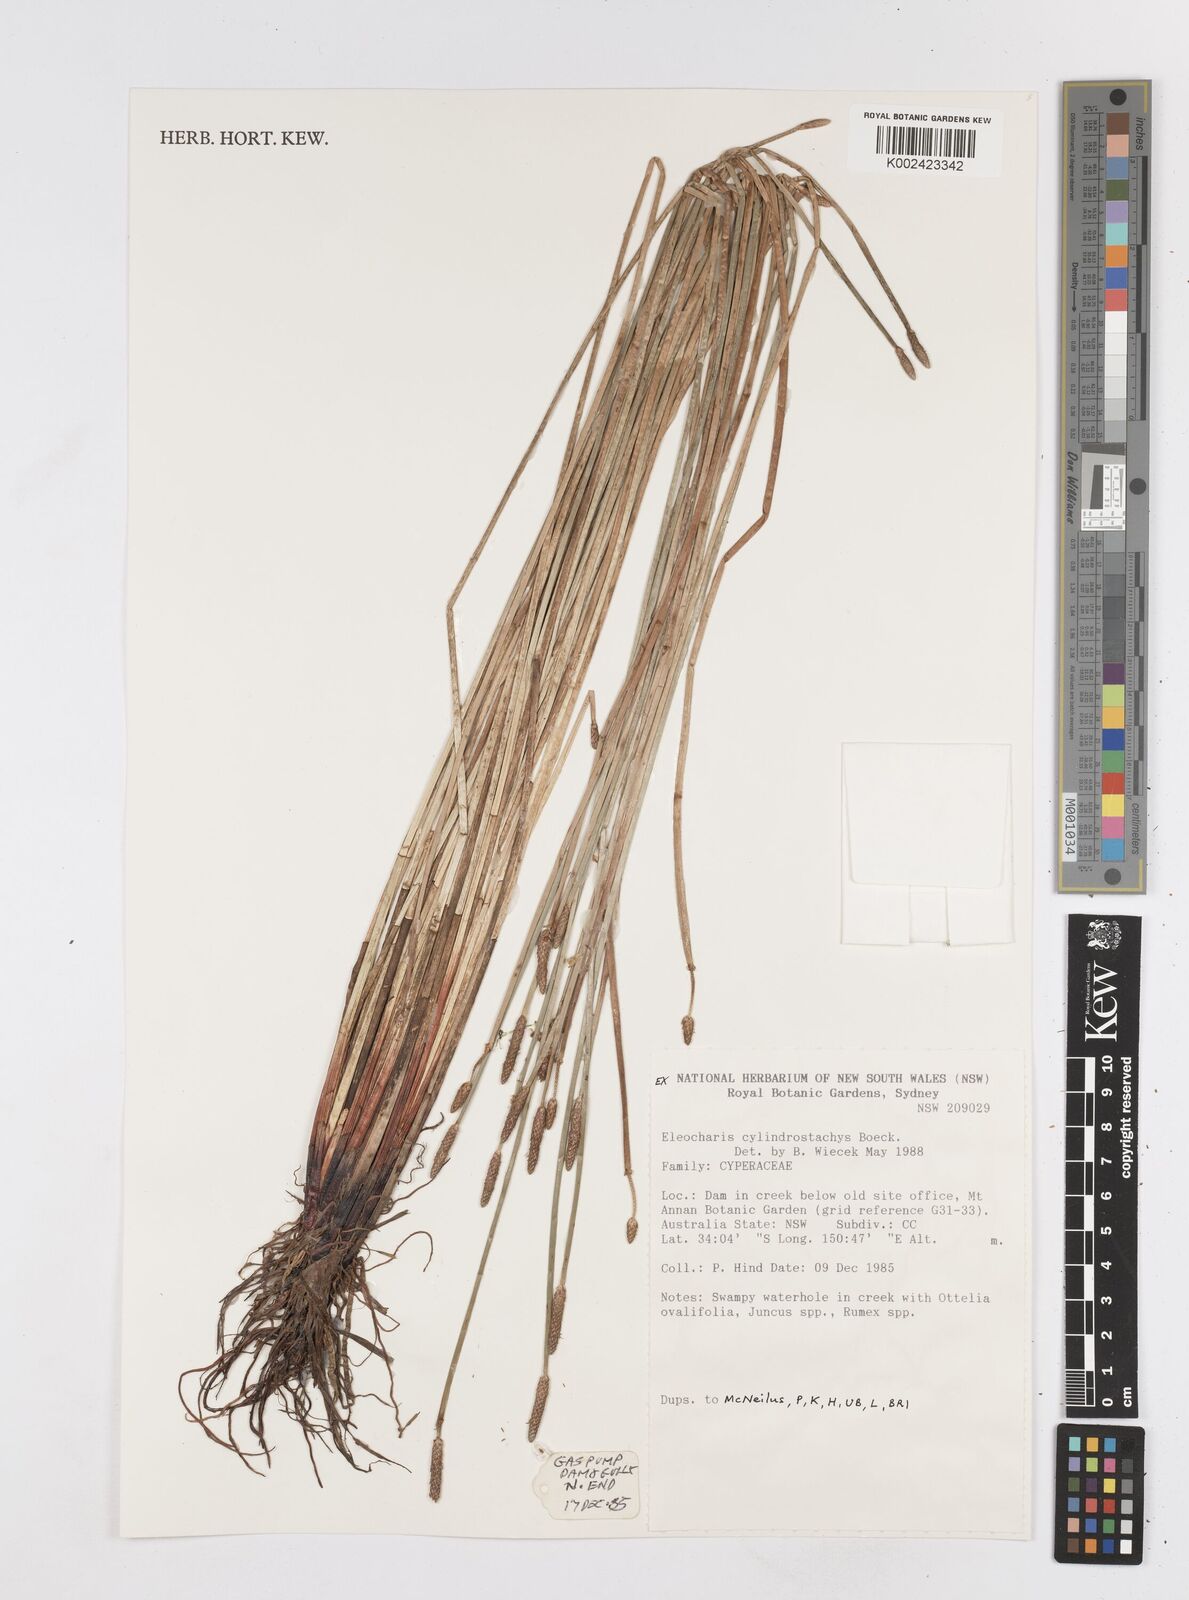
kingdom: Plantae
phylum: Tracheophyta
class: Liliopsida
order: Poales
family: Cyperaceae
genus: Eleocharis
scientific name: Eleocharis cylindrostachys
